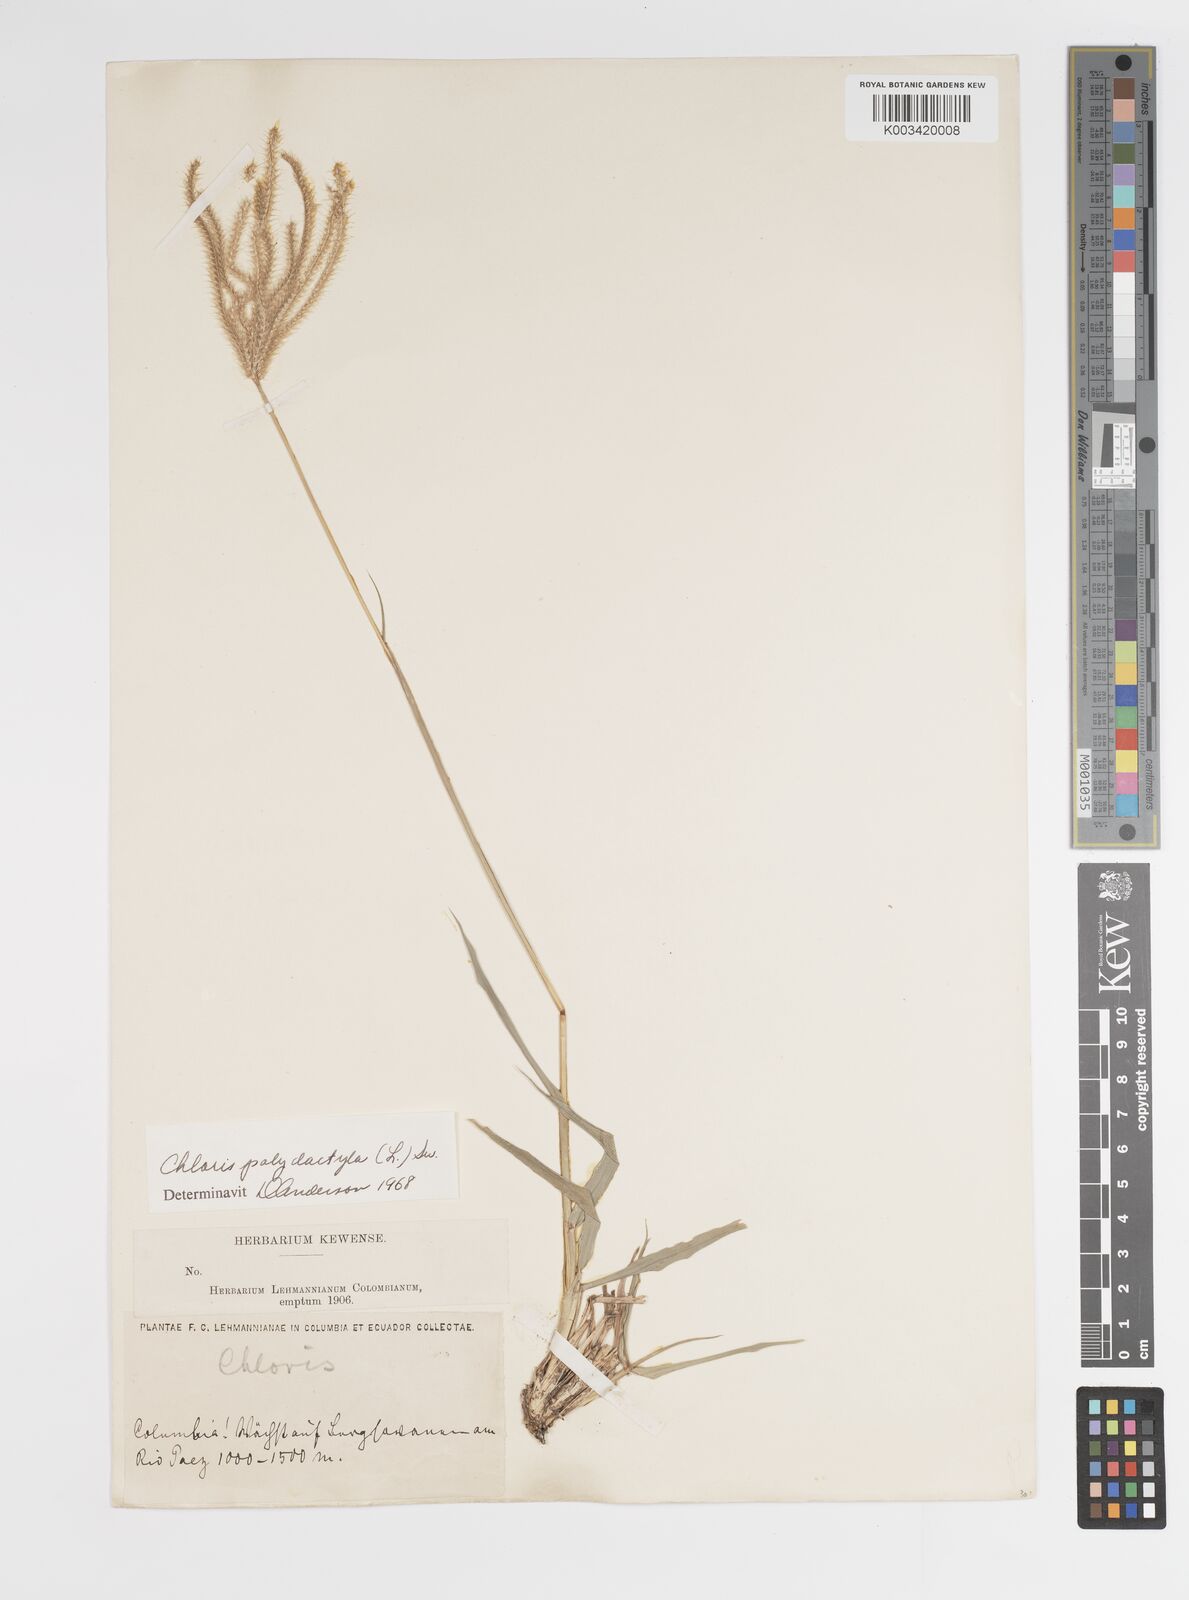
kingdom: Plantae
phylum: Tracheophyta
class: Liliopsida
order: Poales
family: Poaceae
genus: Stapfochloa
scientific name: Stapfochloa elata
